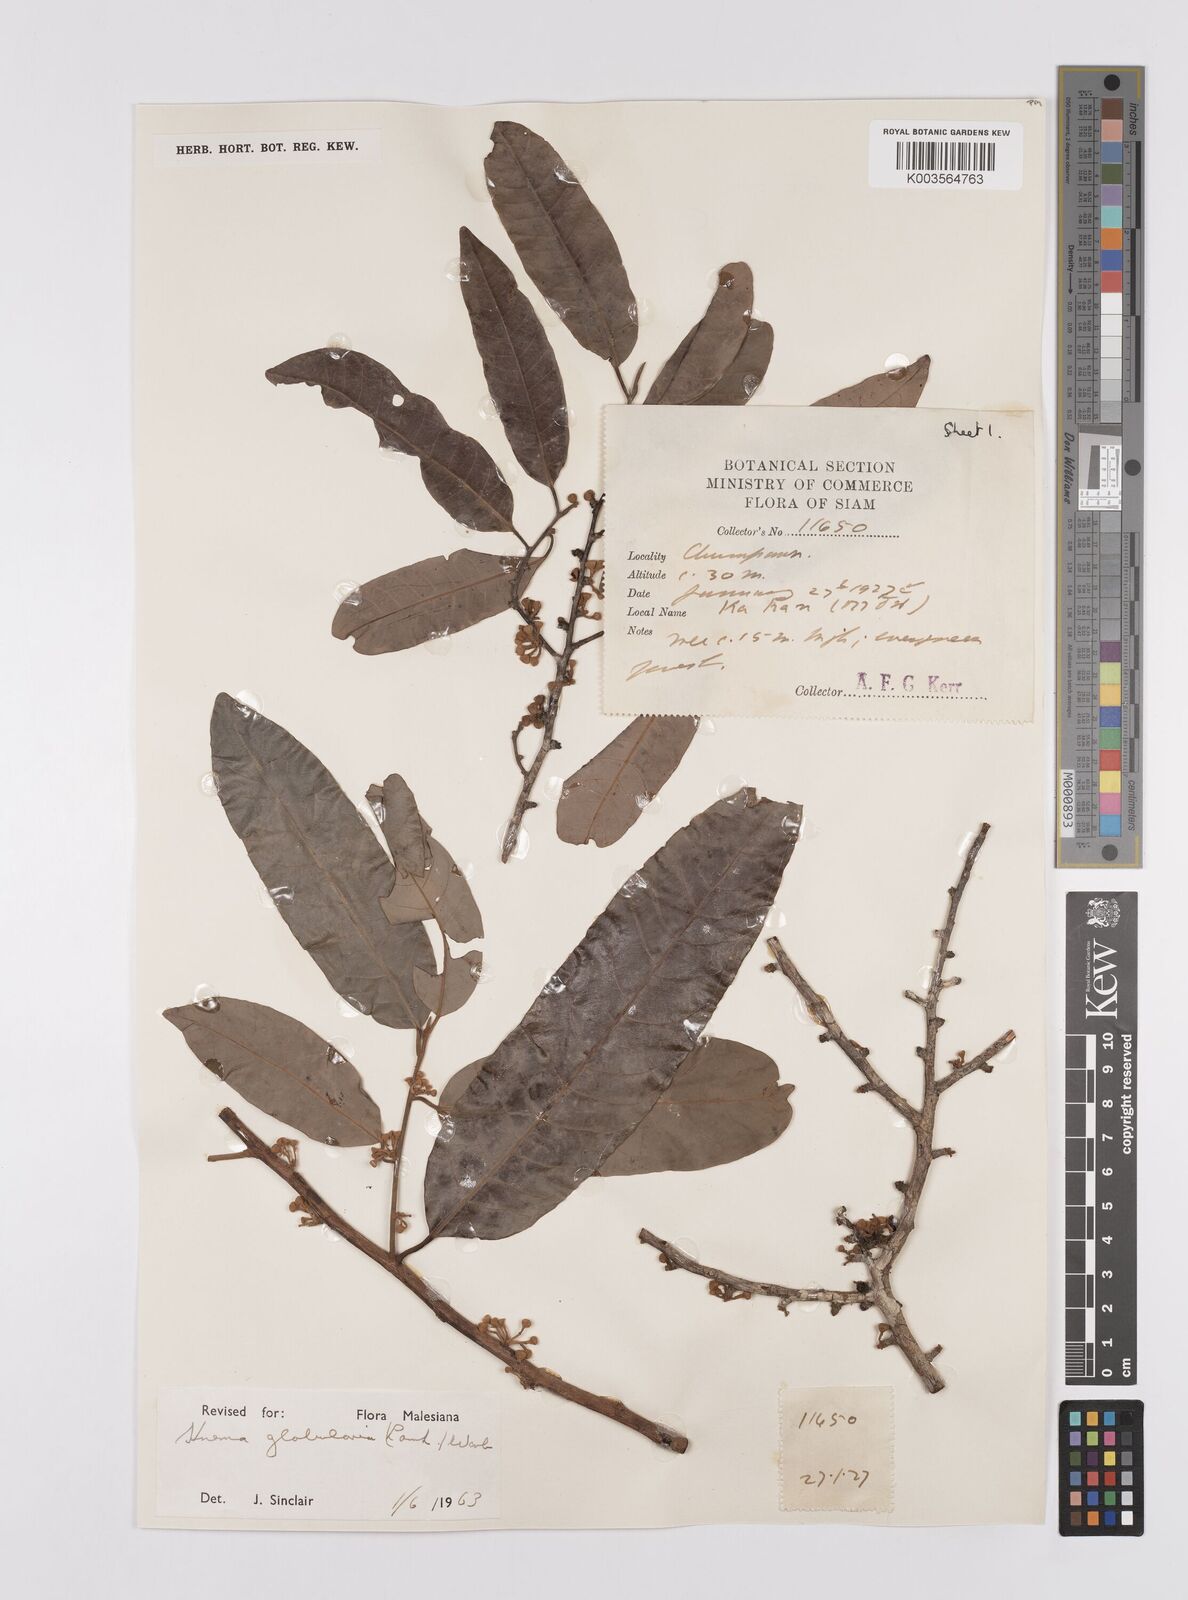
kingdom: Plantae
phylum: Tracheophyta
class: Magnoliopsida
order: Magnoliales
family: Myristicaceae
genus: Knema
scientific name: Knema globularia
